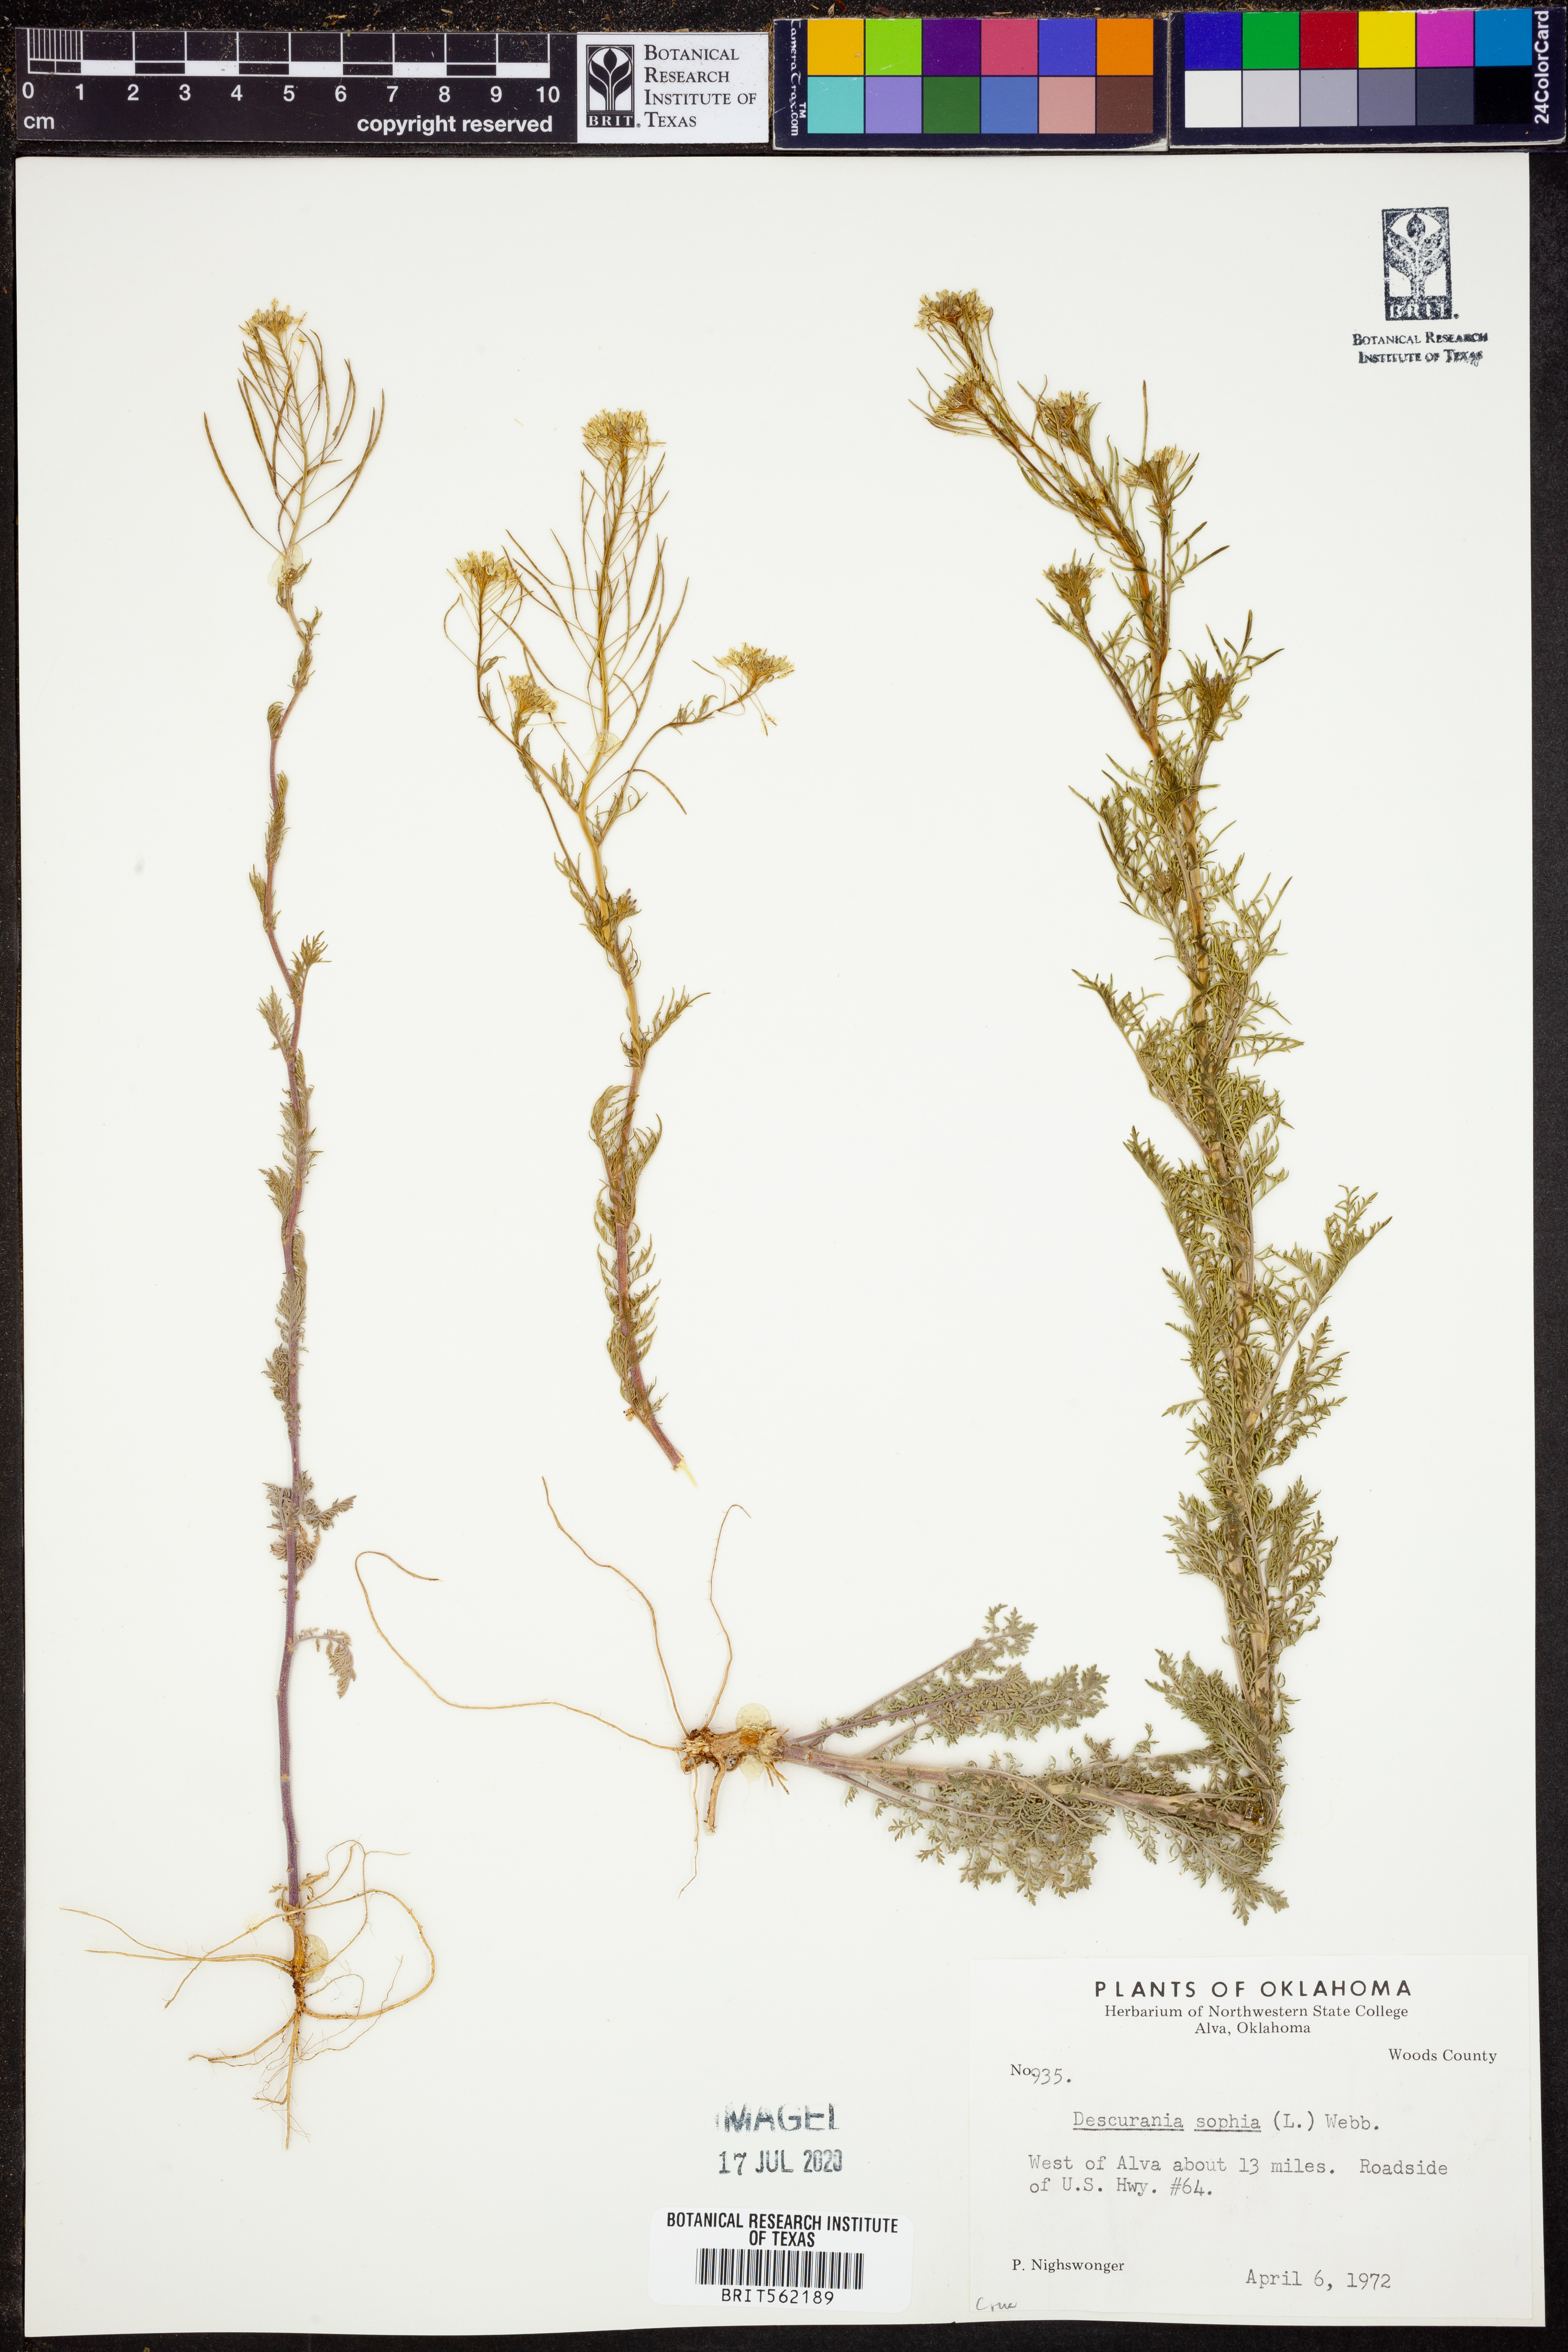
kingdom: Plantae
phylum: Tracheophyta
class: Magnoliopsida
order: Brassicales
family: Brassicaceae
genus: Descurainia
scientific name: Descurainia sophia
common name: Flixweed
